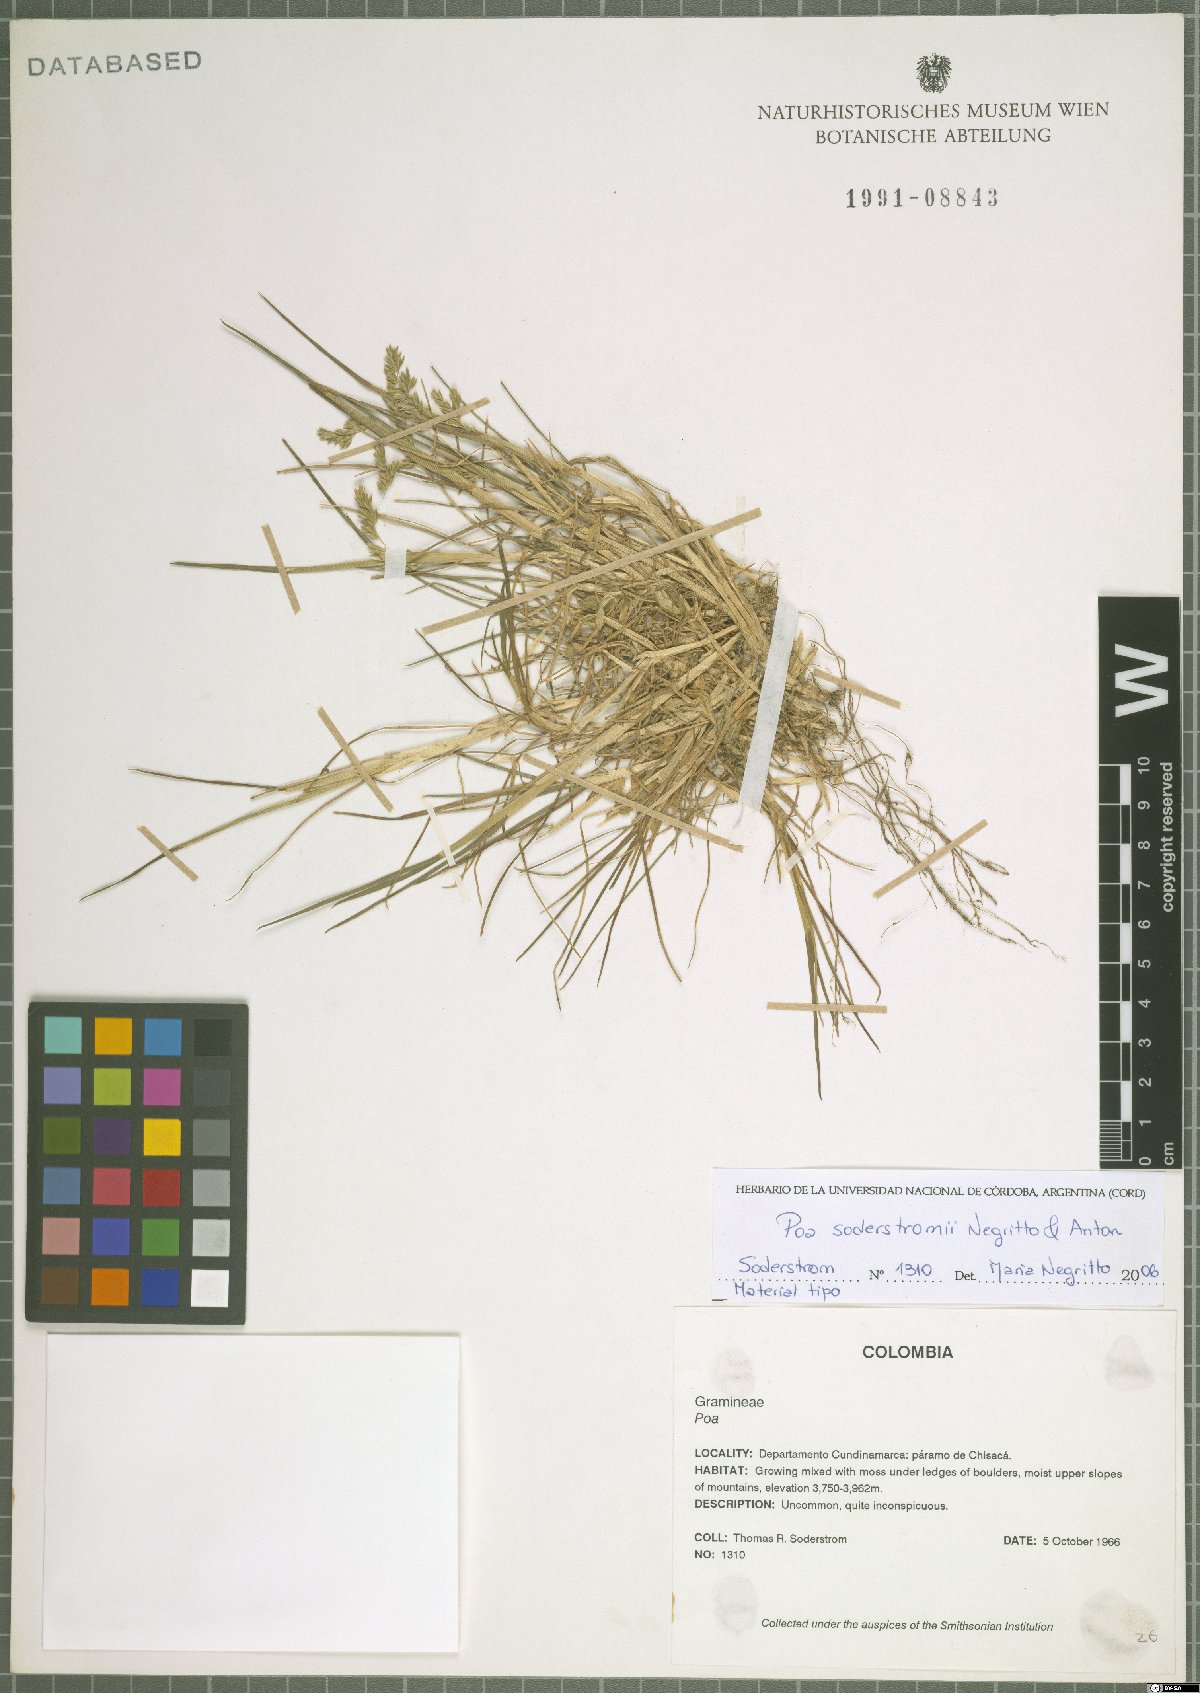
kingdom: Plantae
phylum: Tracheophyta
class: Liliopsida
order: Poales
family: Poaceae
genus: Poa
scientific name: Poa orthophylla
